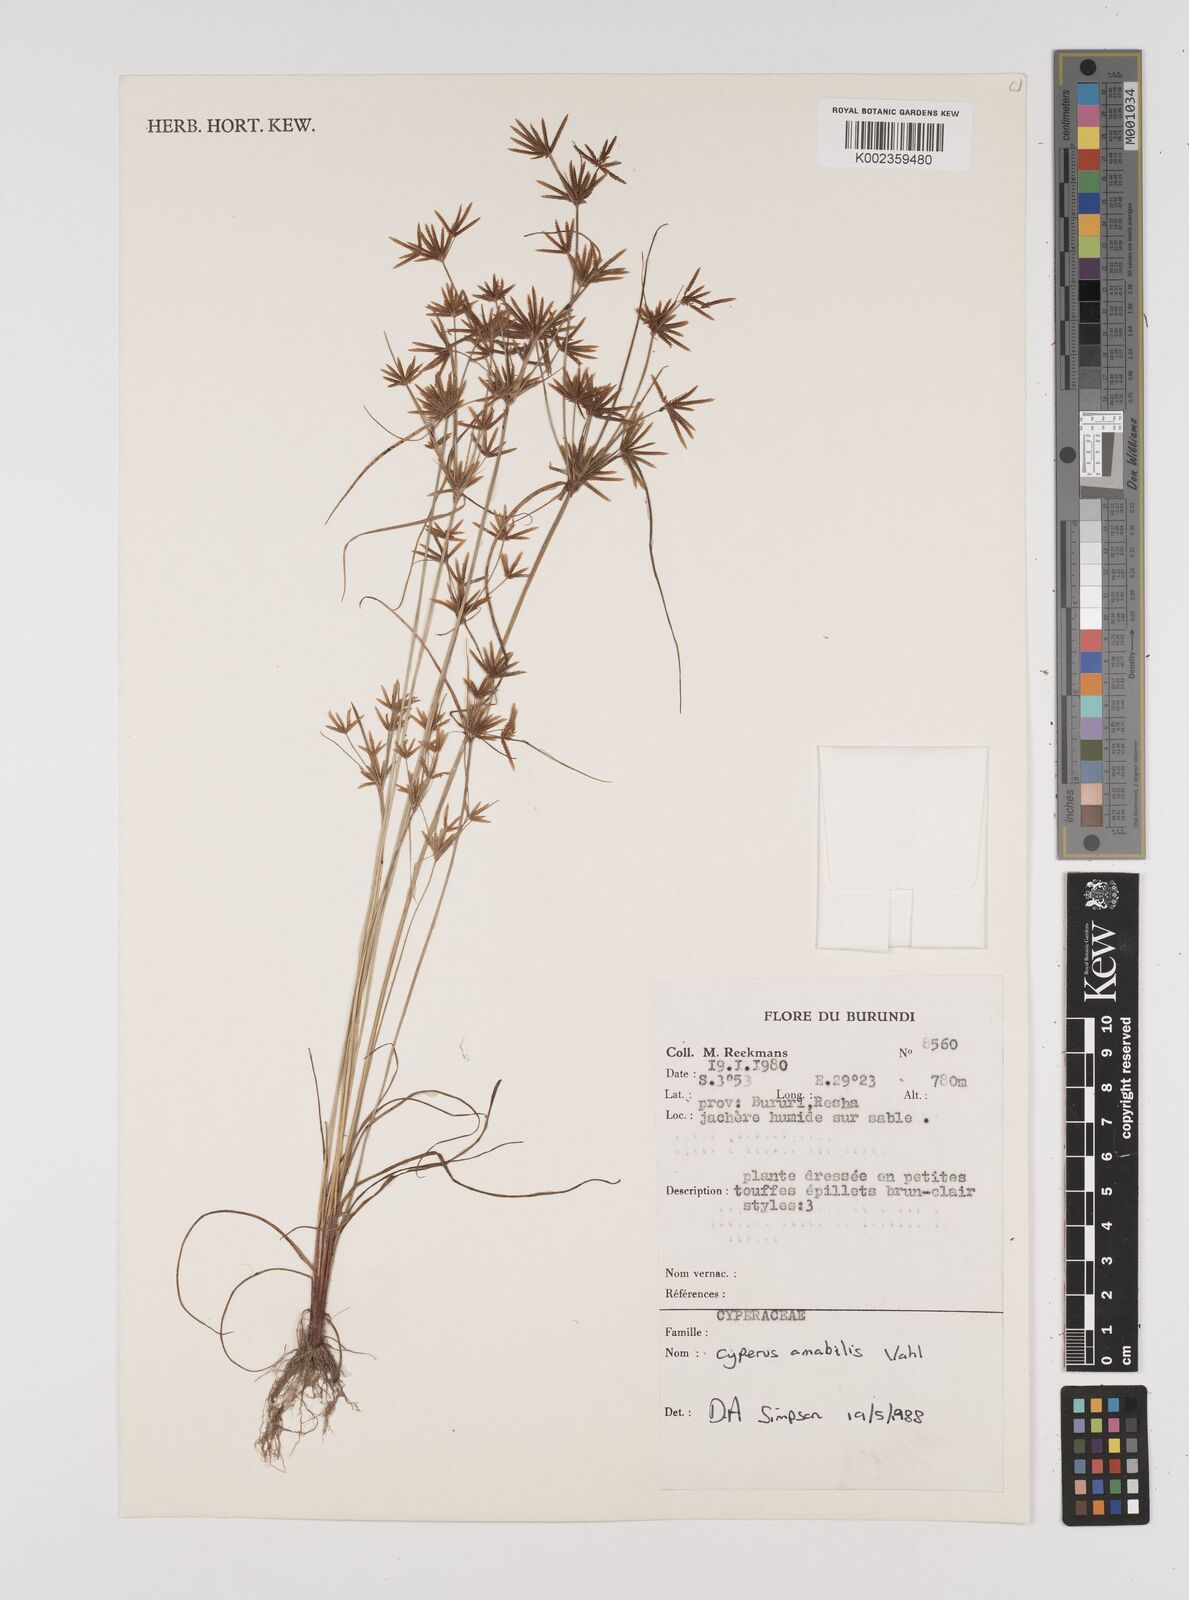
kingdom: Plantae
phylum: Tracheophyta
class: Liliopsida
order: Poales
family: Cyperaceae
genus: Cyperus
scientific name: Cyperus amabilis
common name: Foothill flat sedge
